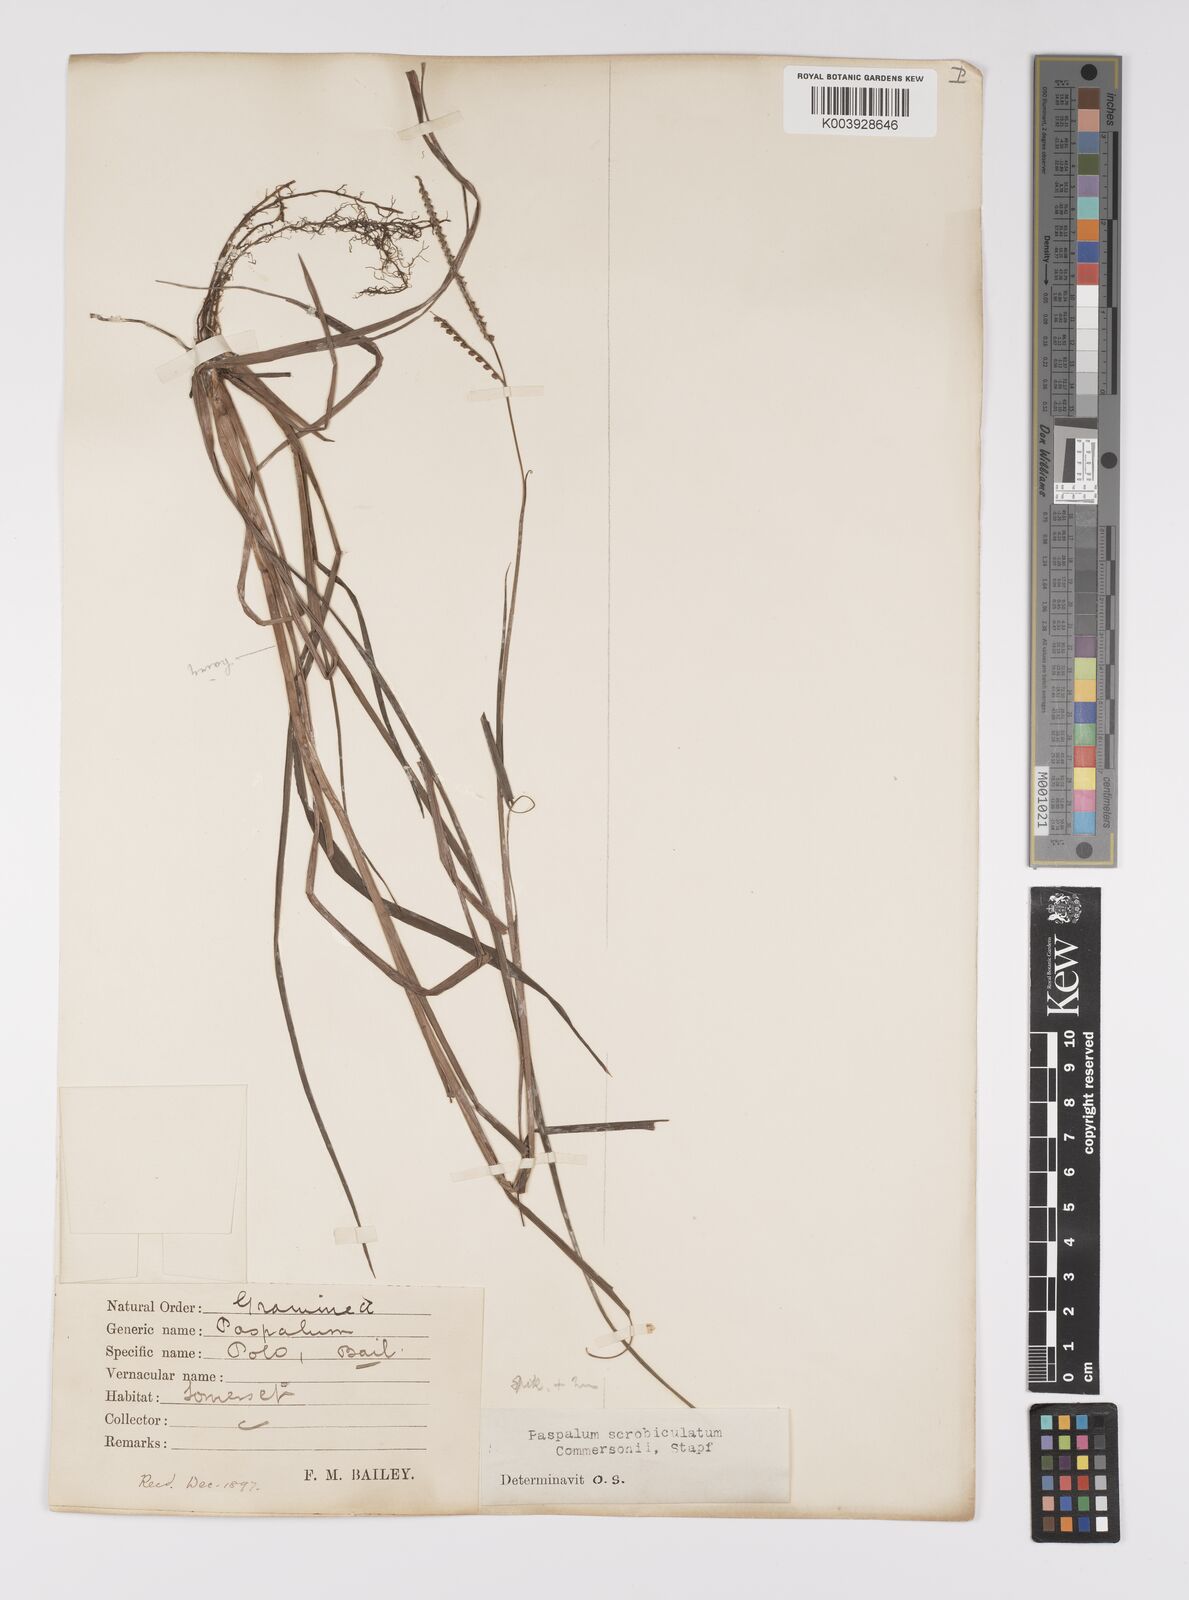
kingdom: Plantae
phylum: Tracheophyta
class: Liliopsida
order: Poales
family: Poaceae
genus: Paspalum
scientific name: Paspalum scrobiculatum
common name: Kodo millet
